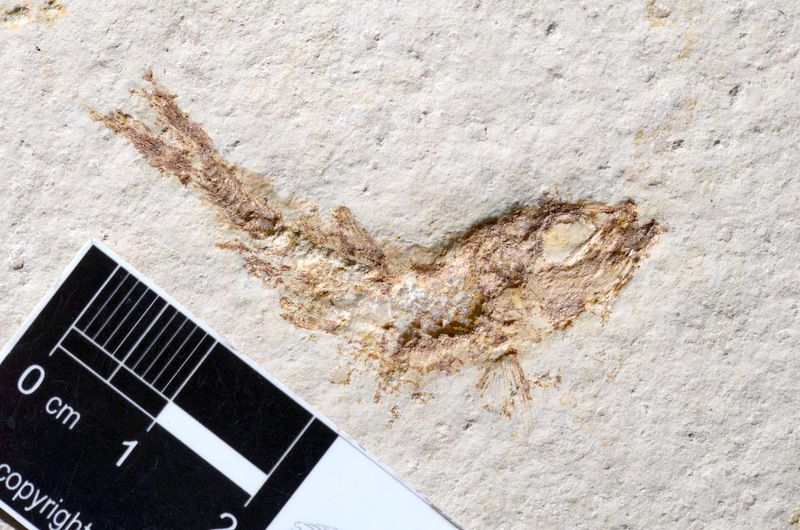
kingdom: Animalia
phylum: Chordata
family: Ascalaboidae
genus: Tharsis
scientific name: Tharsis dubius
